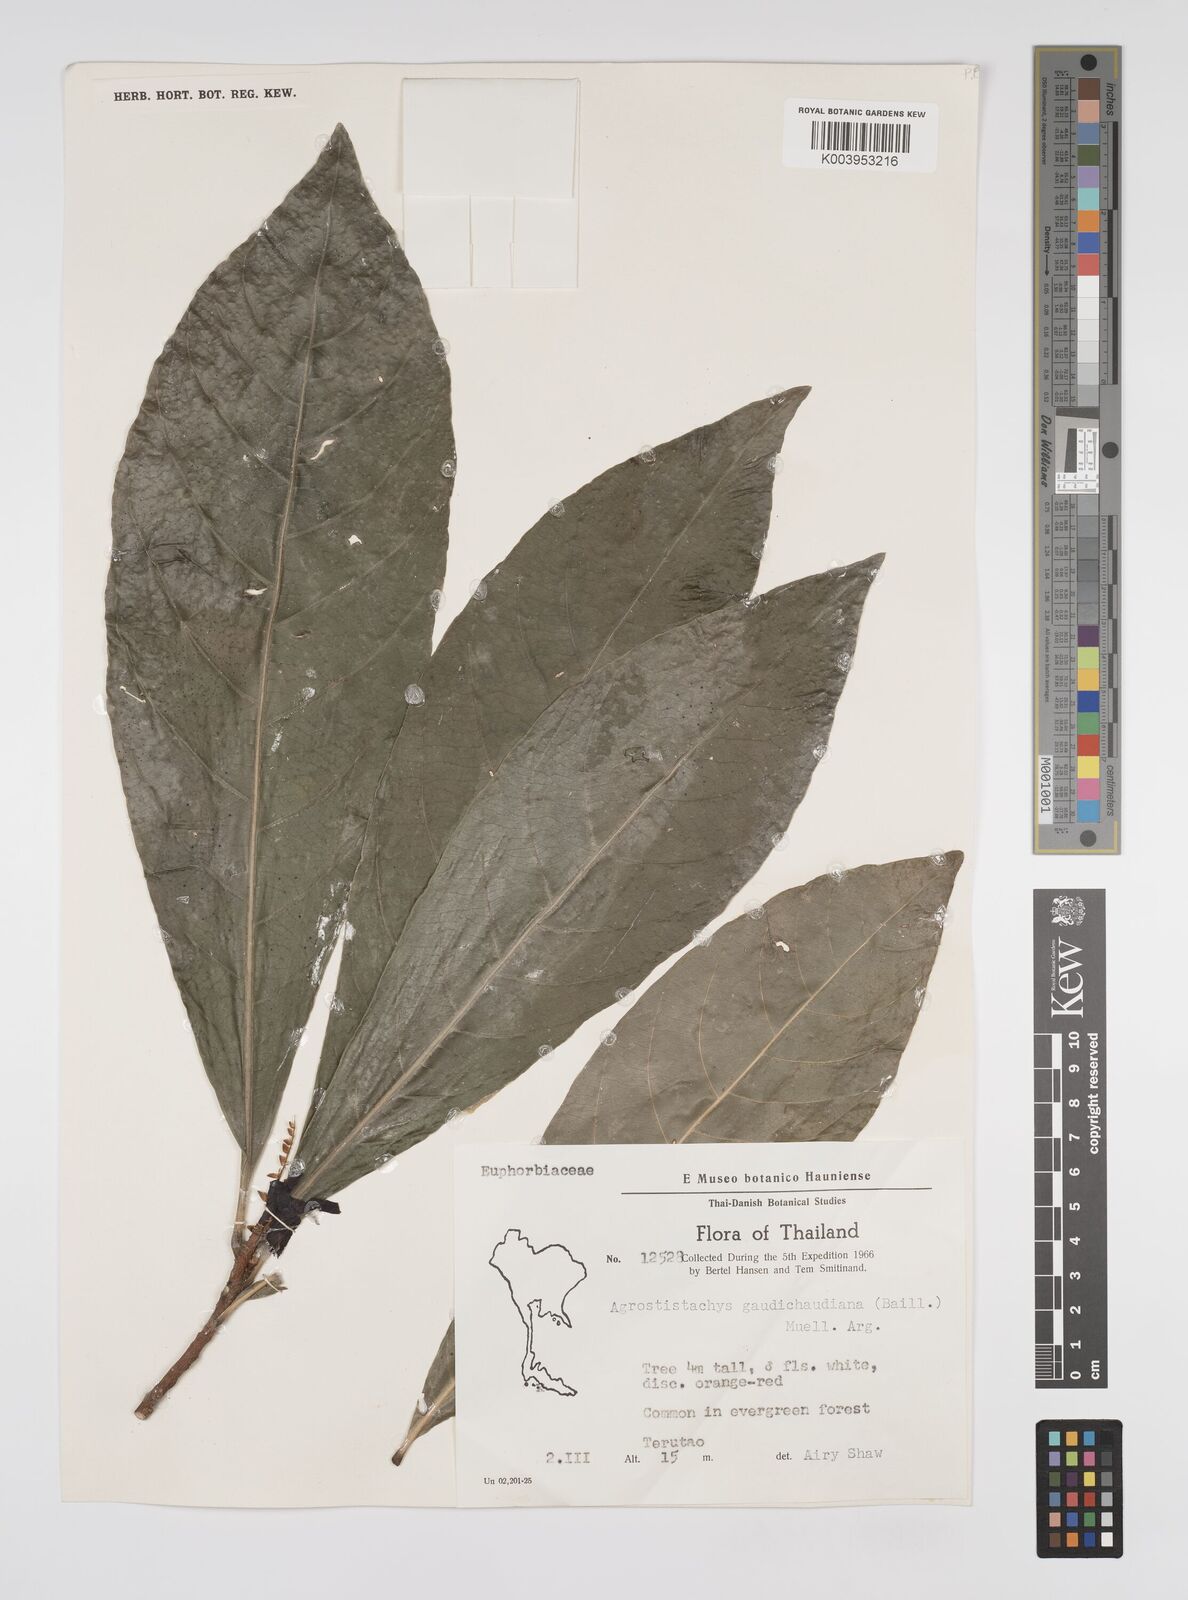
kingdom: Plantae
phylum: Tracheophyta
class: Magnoliopsida
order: Malpighiales
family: Euphorbiaceae
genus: Agrostistachys
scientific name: Agrostistachys gaudichaudii
